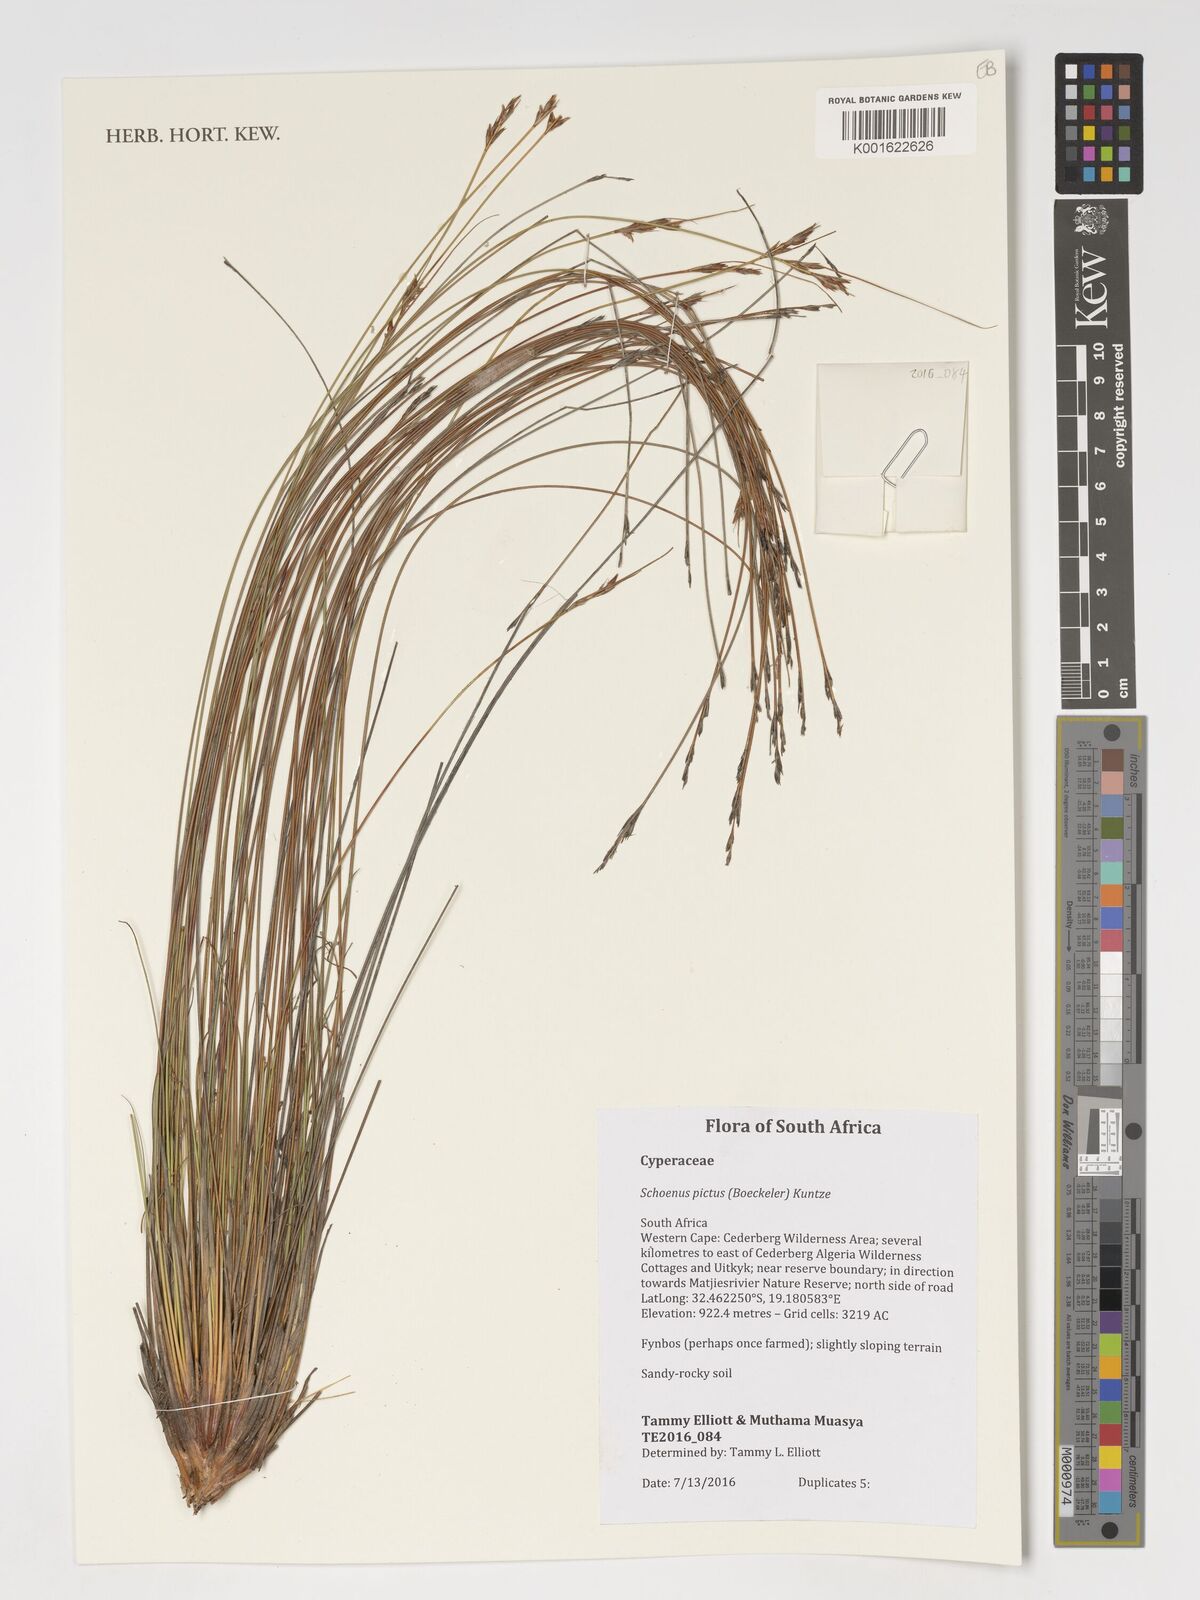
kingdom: Plantae
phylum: Tracheophyta
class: Liliopsida
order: Poales
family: Cyperaceae
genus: Schoenus
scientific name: Schoenus pictus
